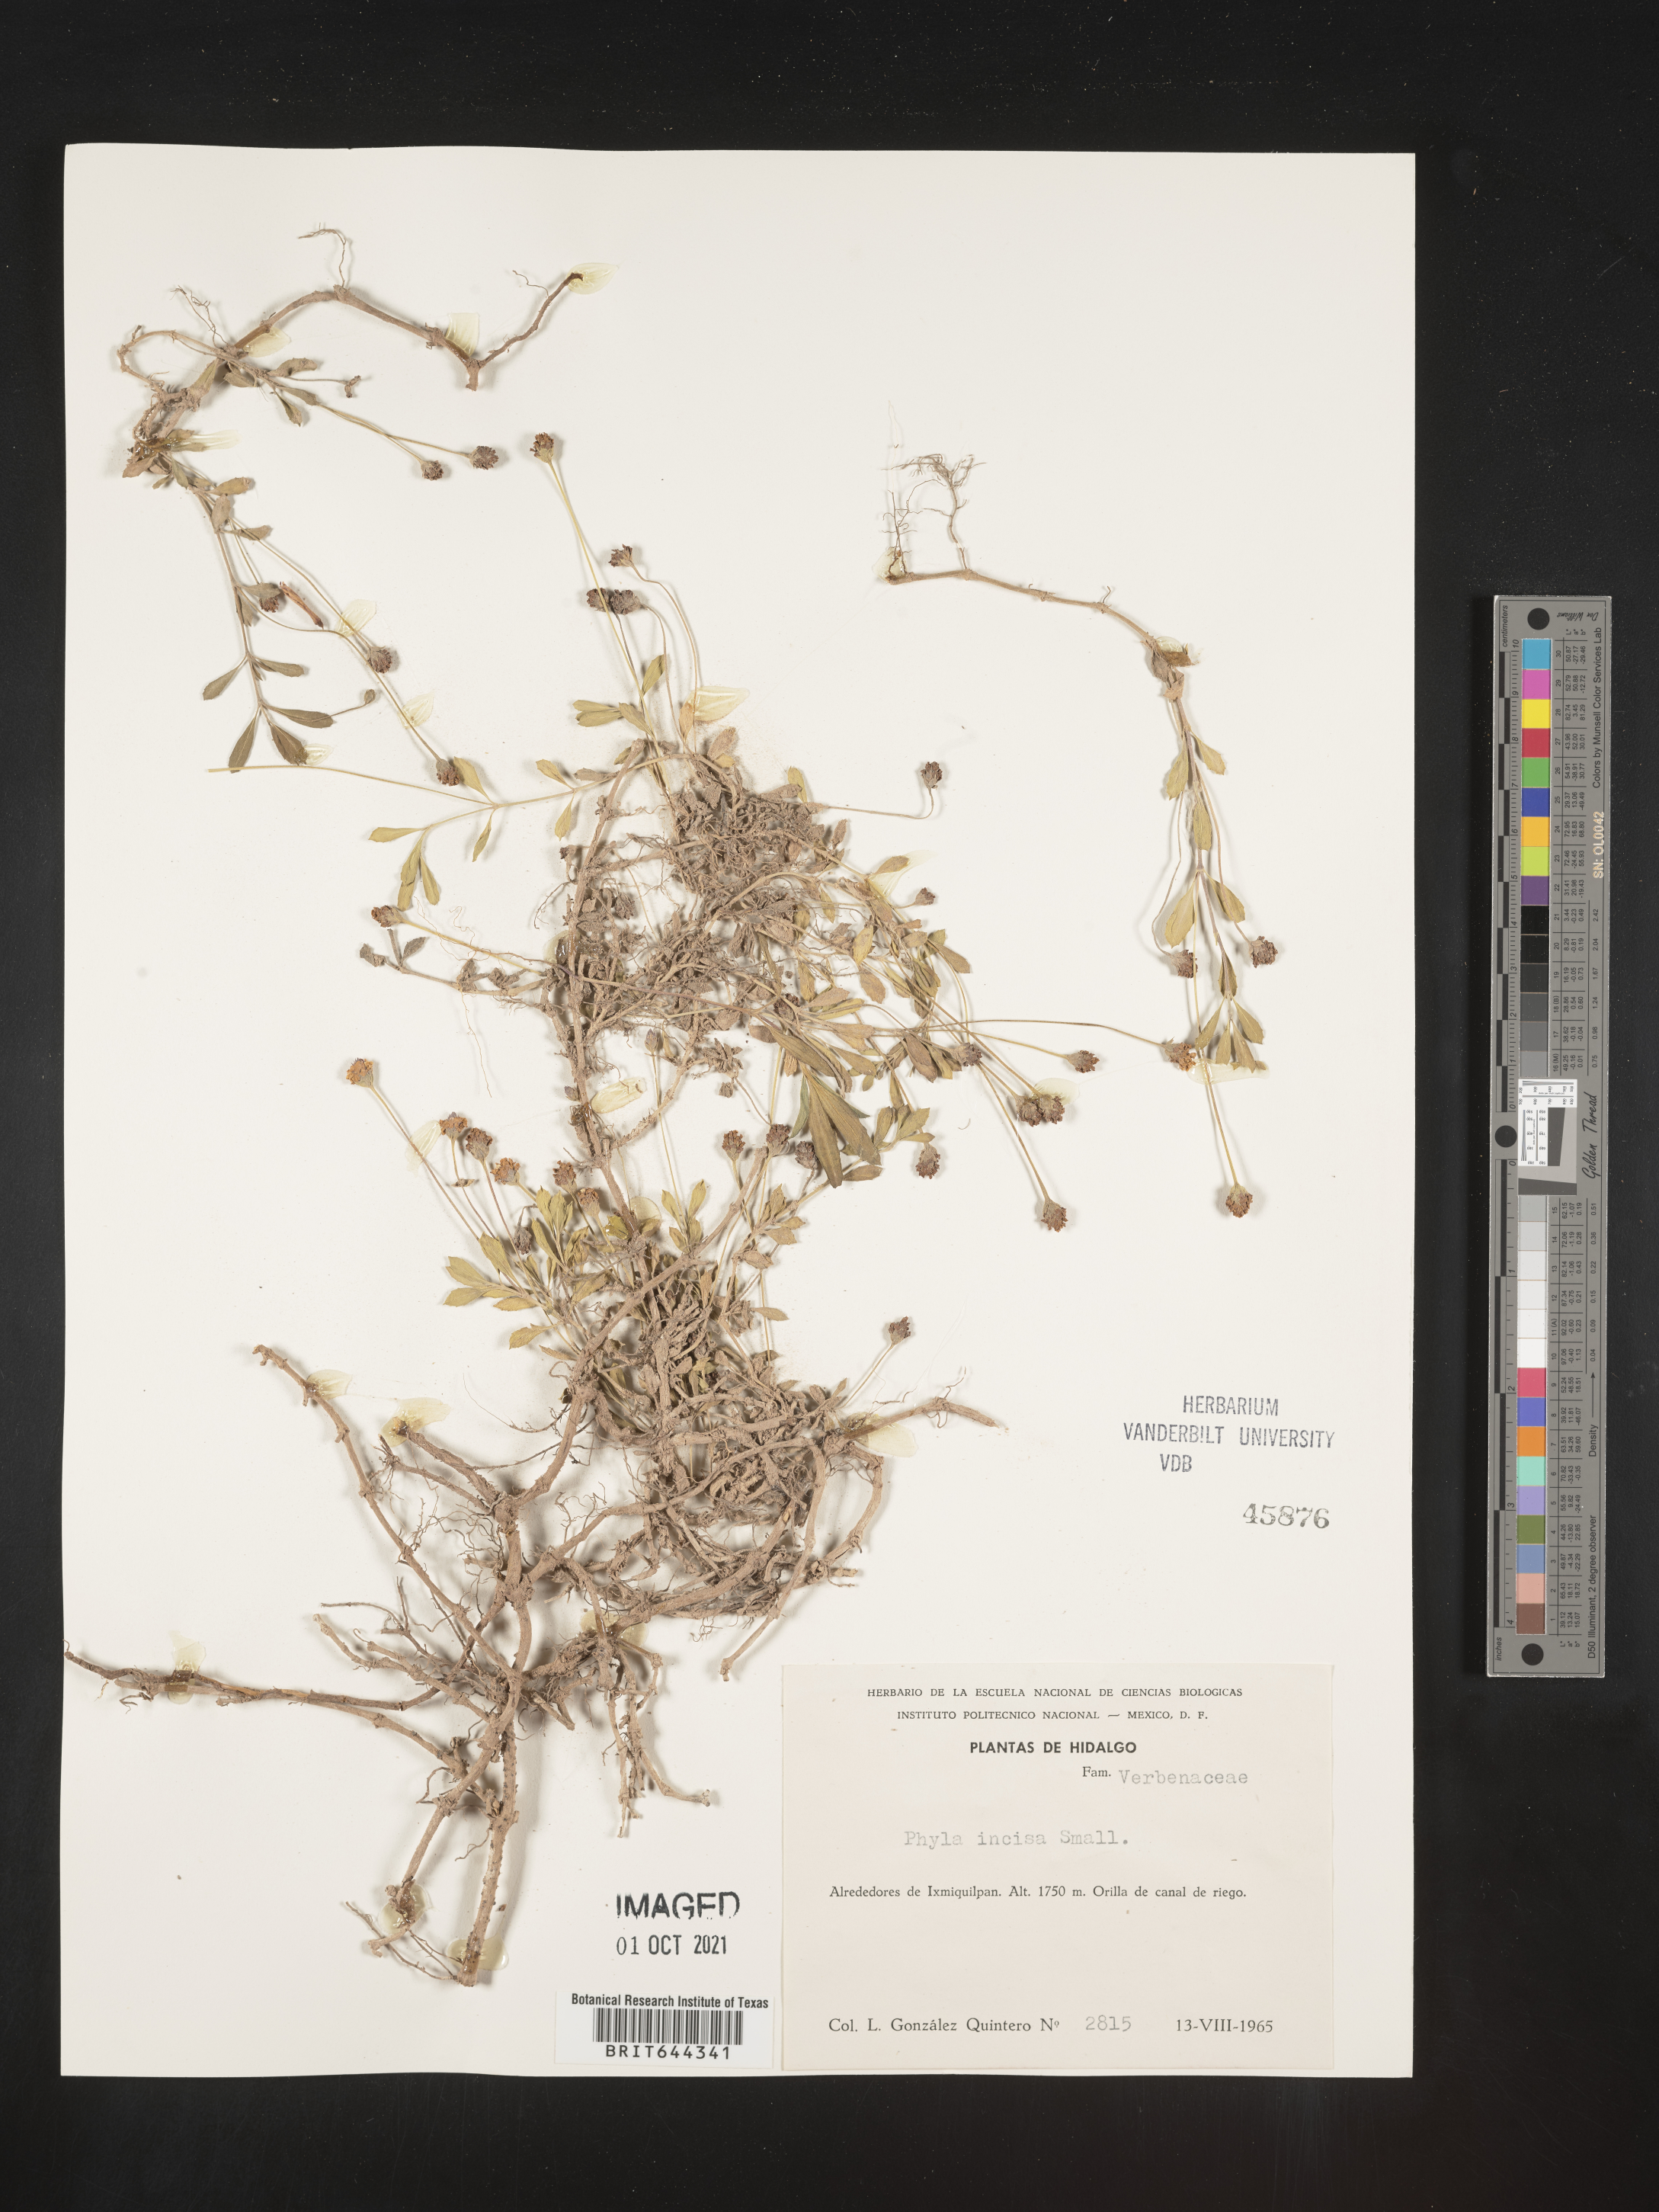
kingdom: Plantae
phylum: Tracheophyta
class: Magnoliopsida
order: Lamiales
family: Verbenaceae
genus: Phyla
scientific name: Phyla
